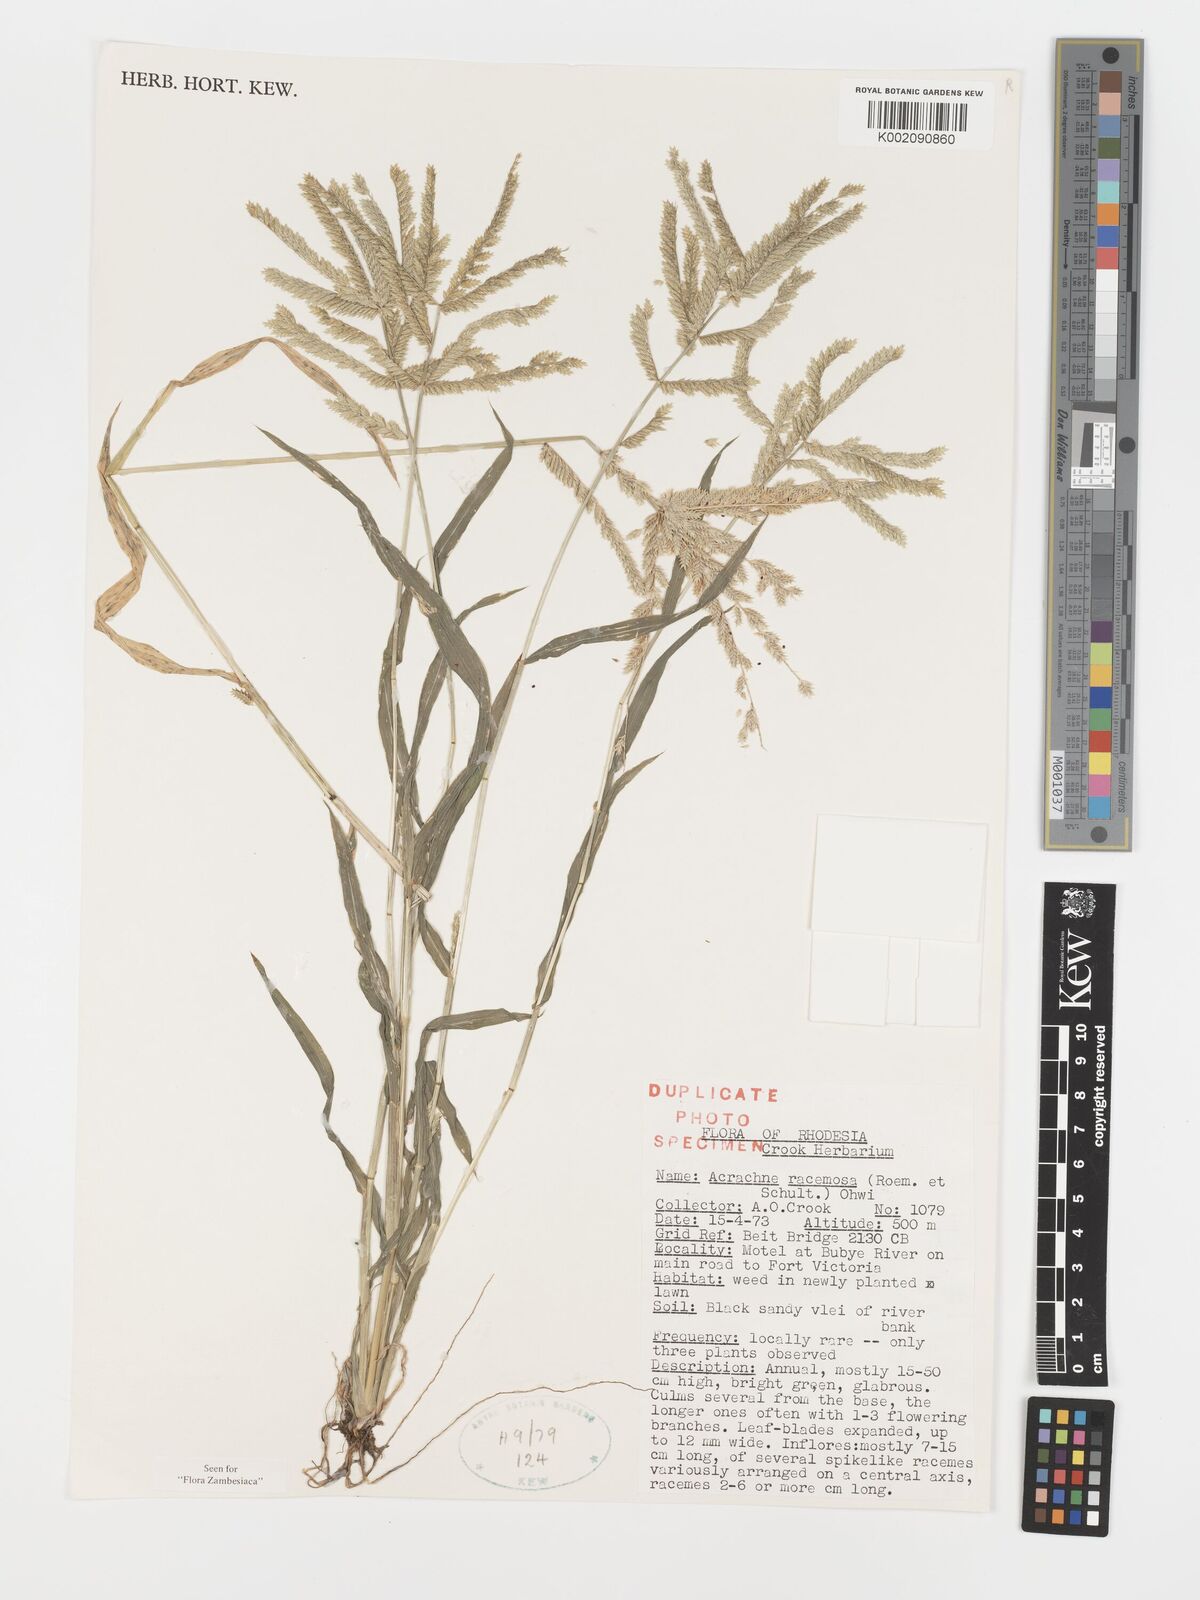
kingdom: Plantae
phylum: Tracheophyta
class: Liliopsida
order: Poales
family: Poaceae
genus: Acrachne
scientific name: Acrachne racemosa
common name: Goosegrass
